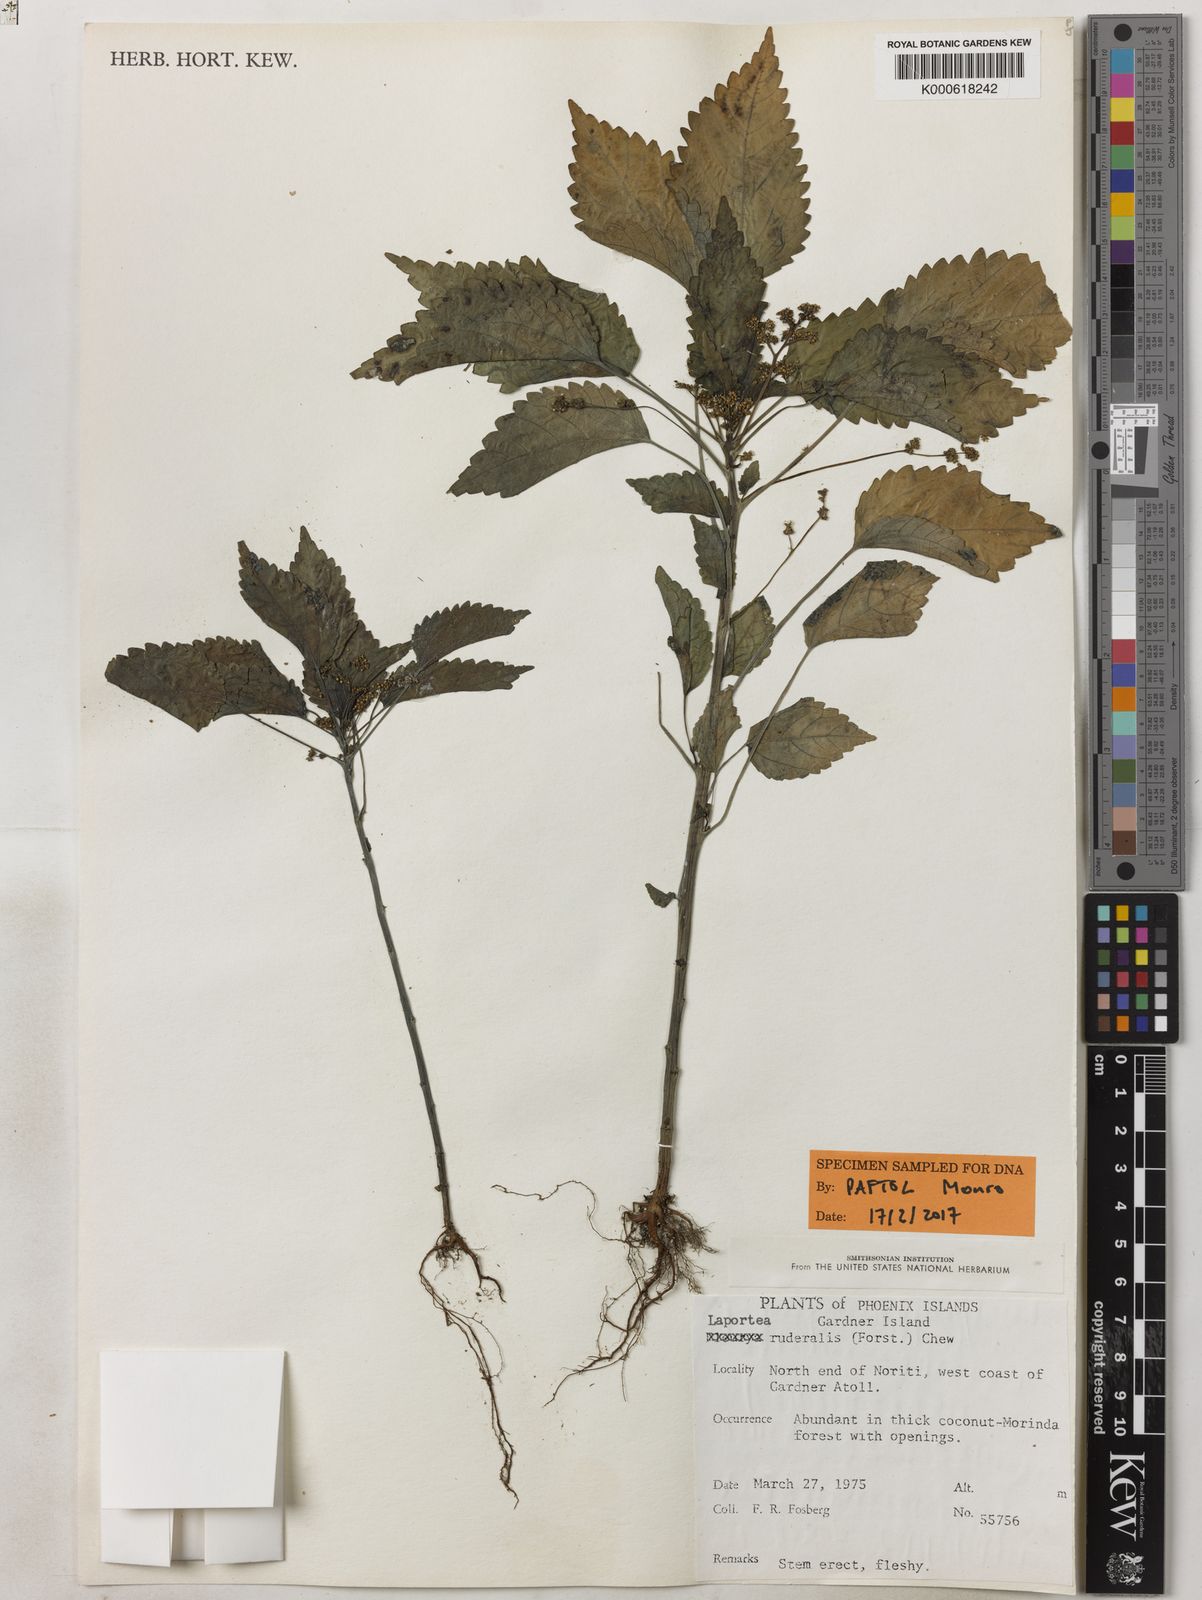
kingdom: Plantae
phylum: Tracheophyta
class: Magnoliopsida
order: Rosales
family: Urticaceae
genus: Laportea
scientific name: Laportea ruderalis
